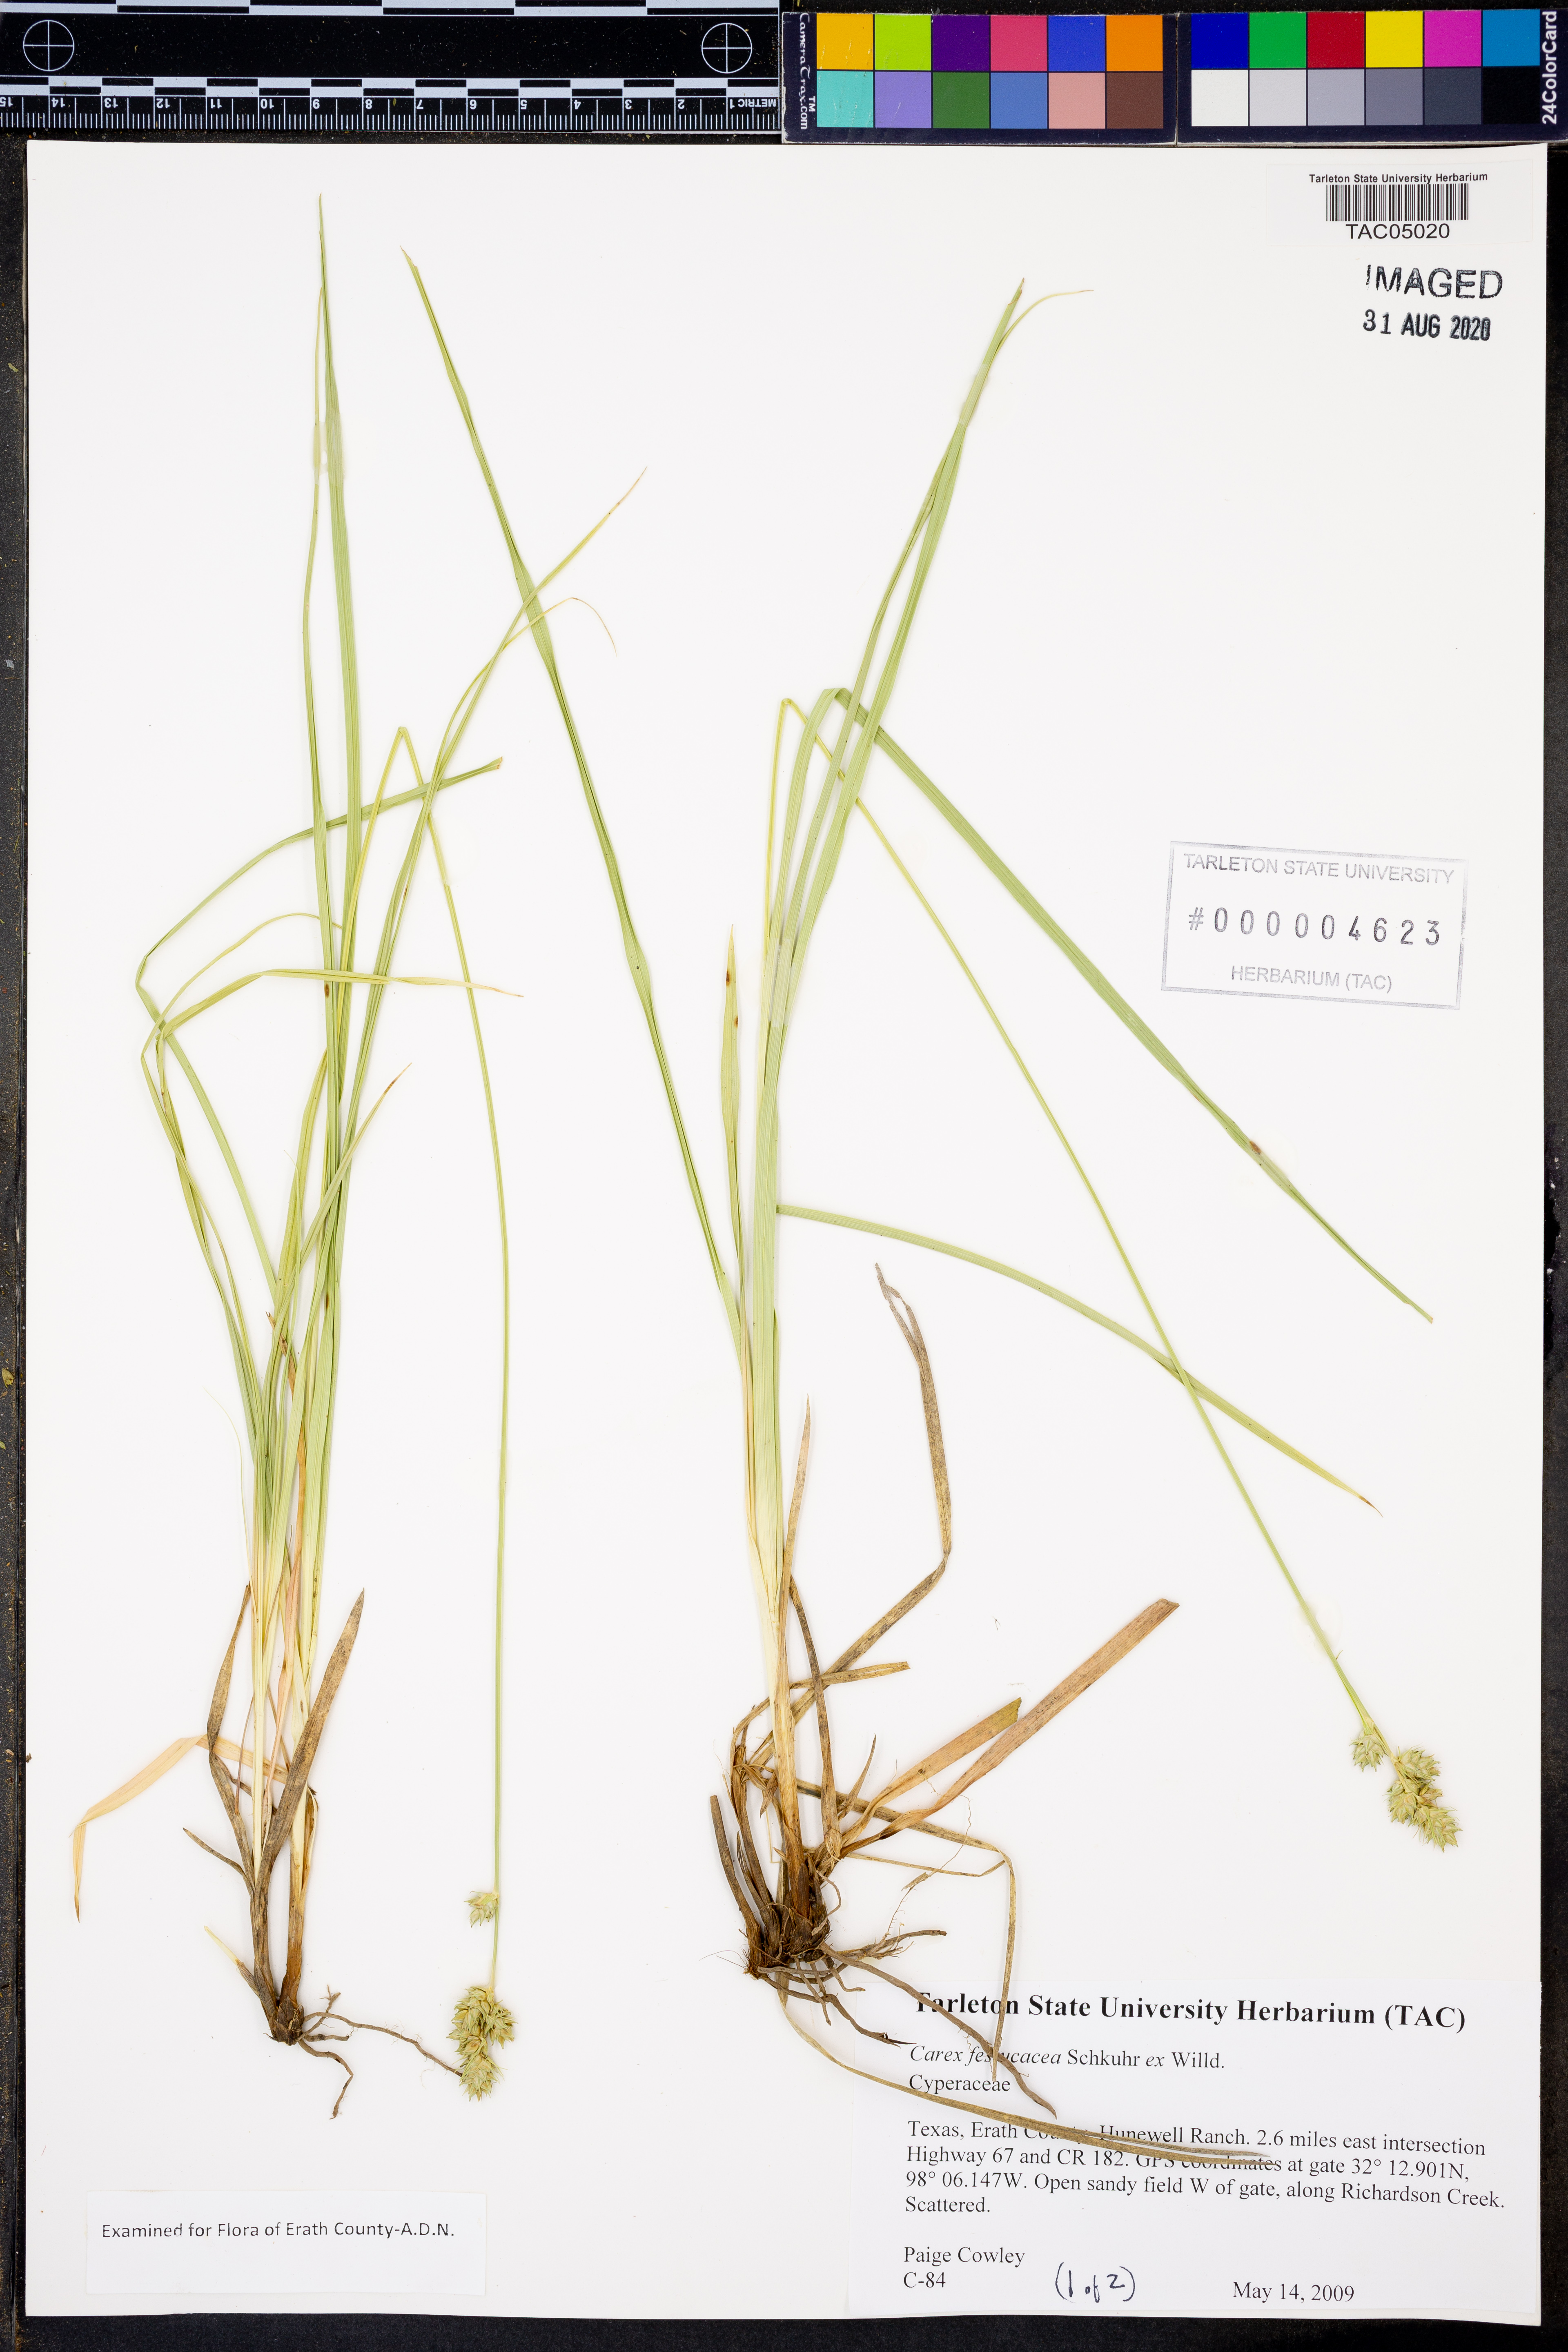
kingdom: Plantae
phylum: Tracheophyta
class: Liliopsida
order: Poales
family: Cyperaceae
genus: Carex
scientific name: Carex festucacea
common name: Fescue oval sedge
